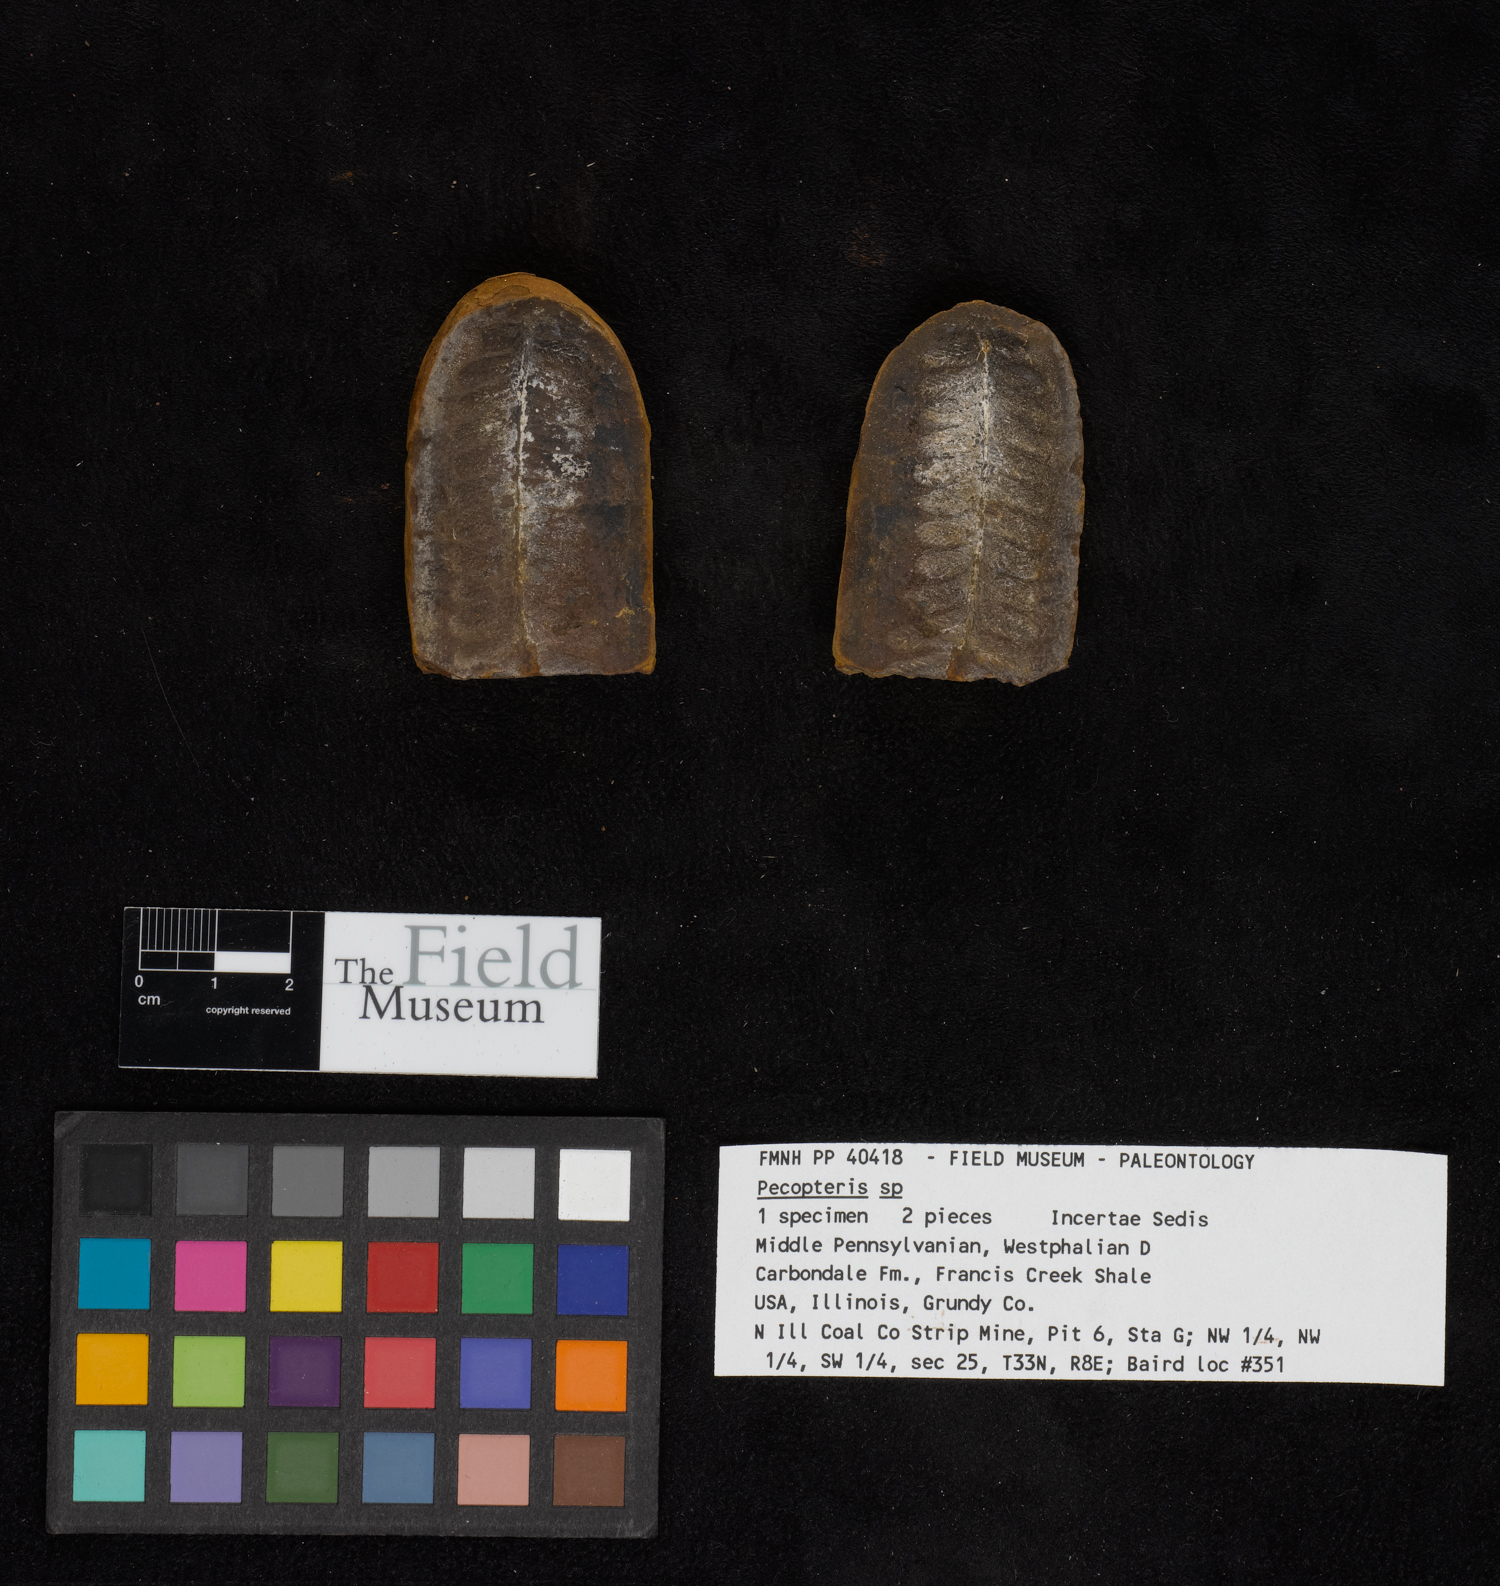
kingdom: Plantae
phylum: Tracheophyta
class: Polypodiopsida
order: Marattiales
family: Asterothecaceae
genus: Pecopteris
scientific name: Pecopteris
